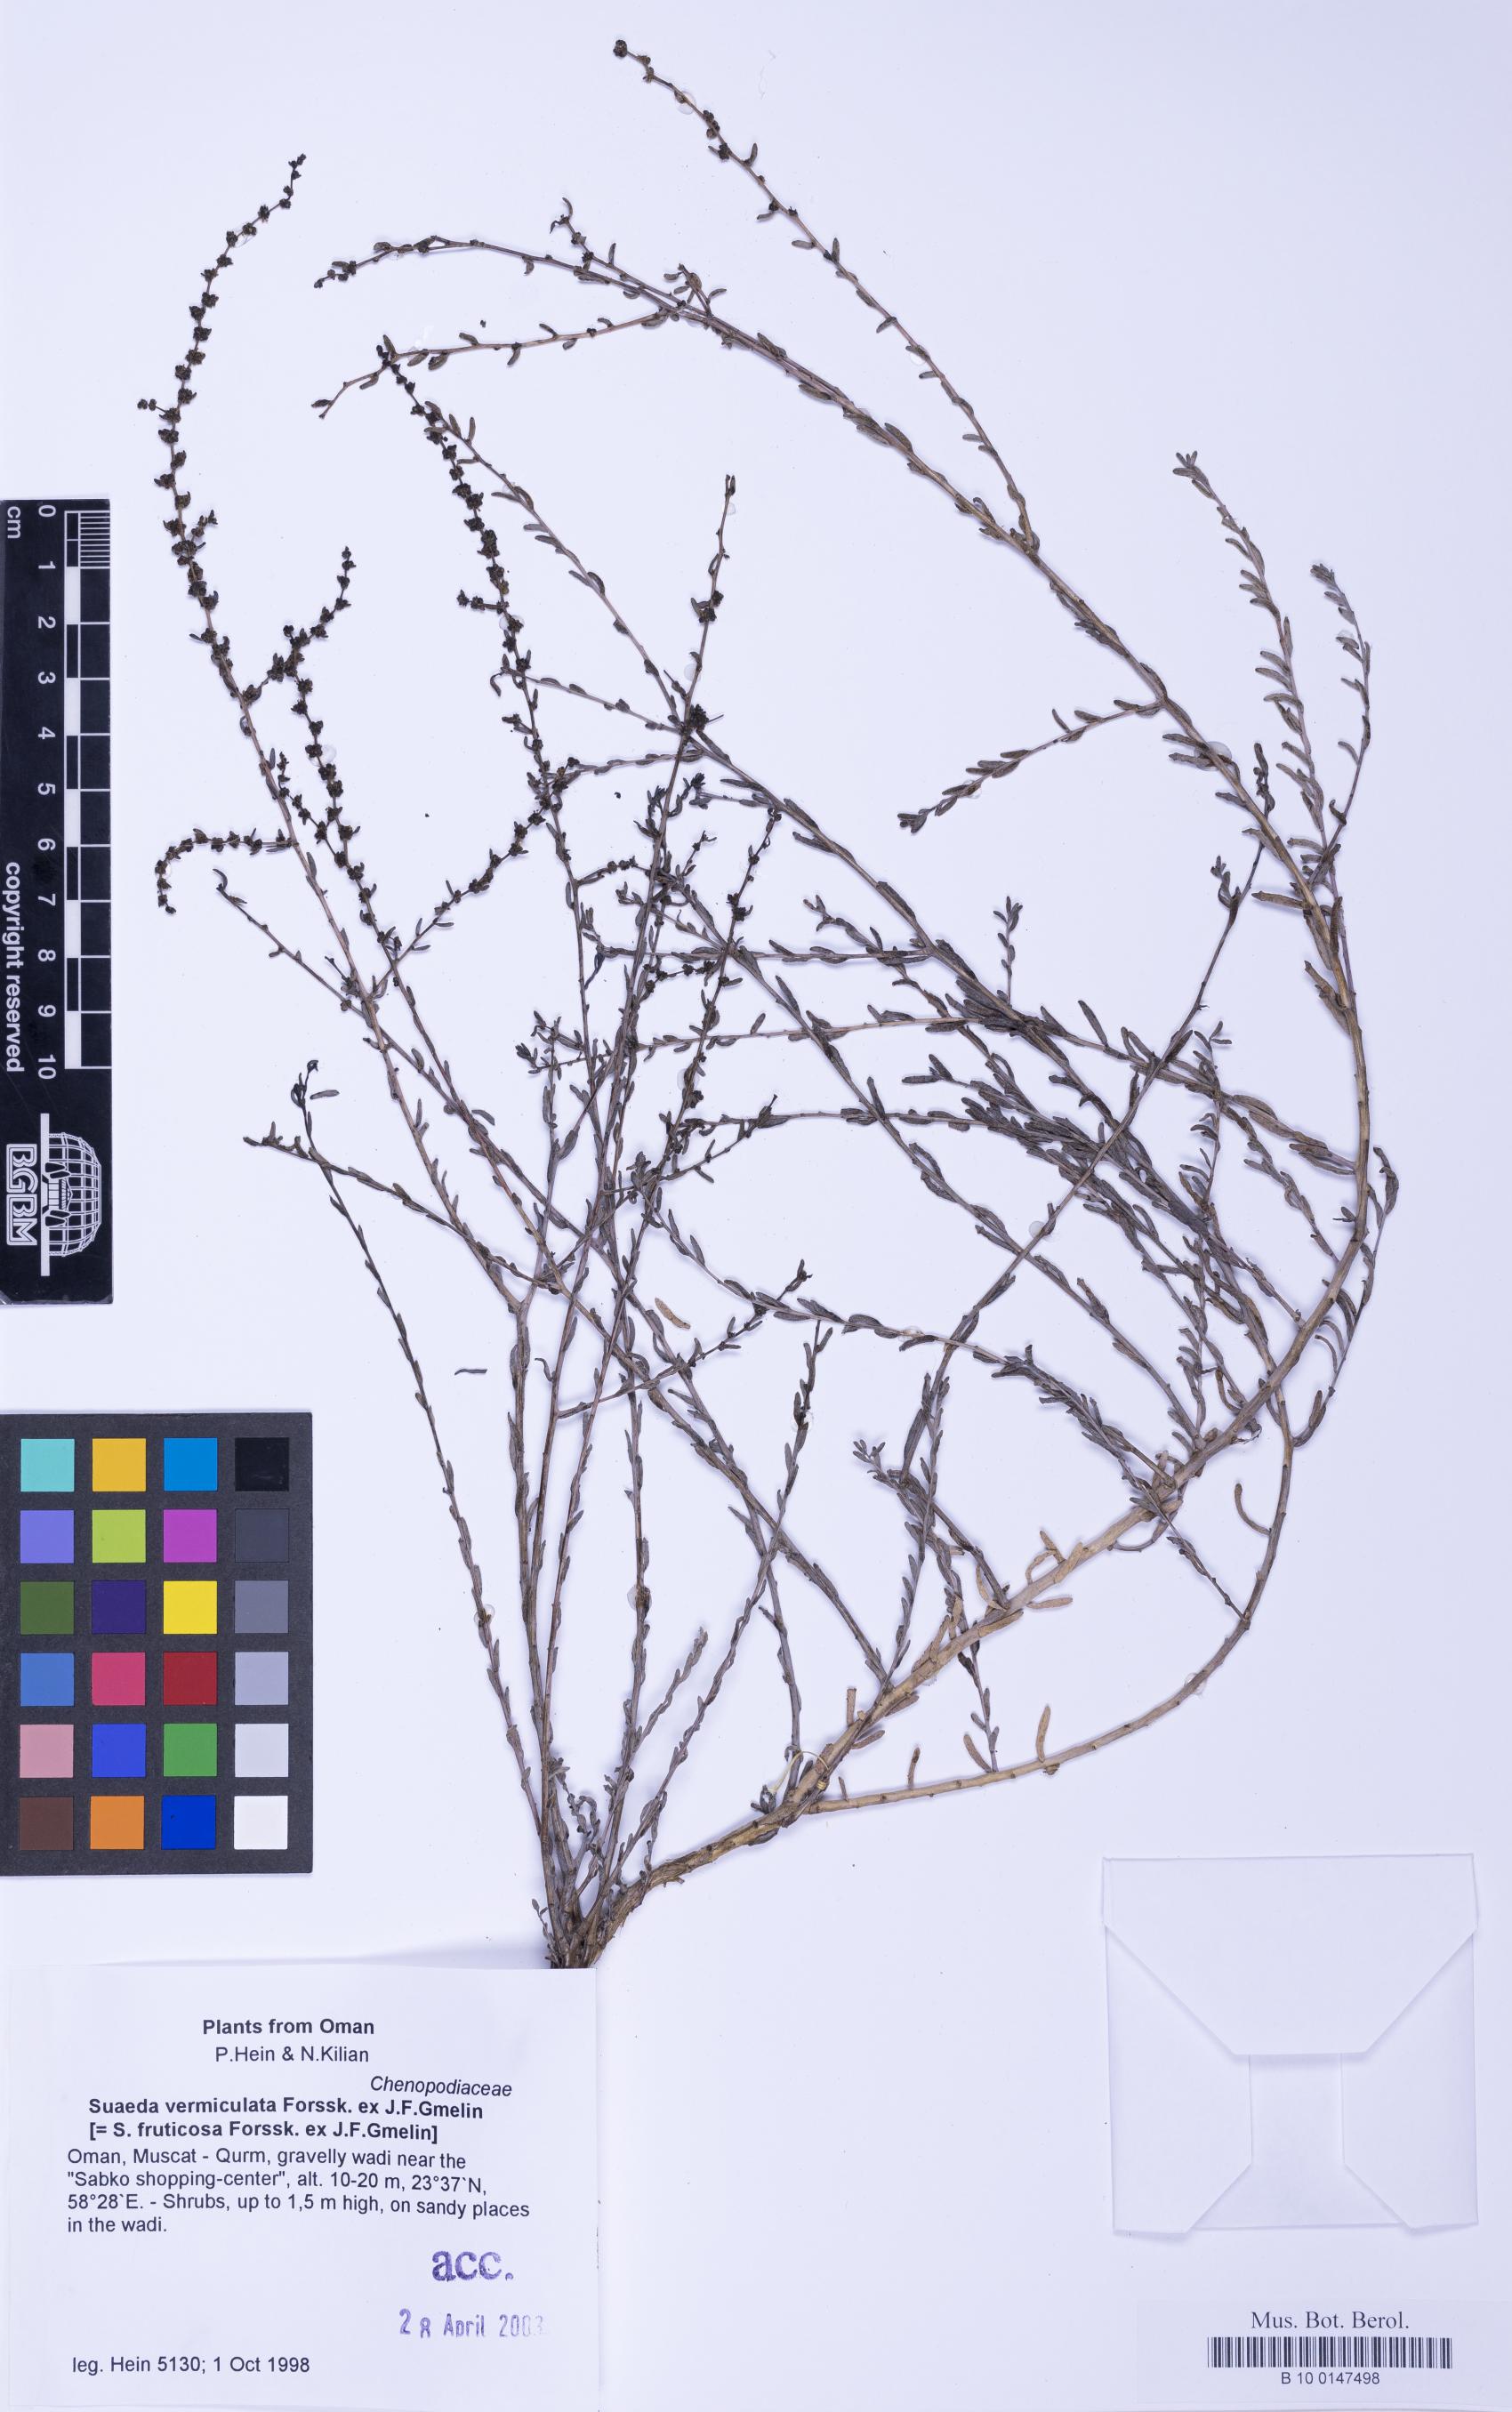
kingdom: Plantae
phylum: Tracheophyta
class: Magnoliopsida
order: Caryophyllales
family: Amaranthaceae
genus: Suaeda
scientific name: Suaeda vermiculata
